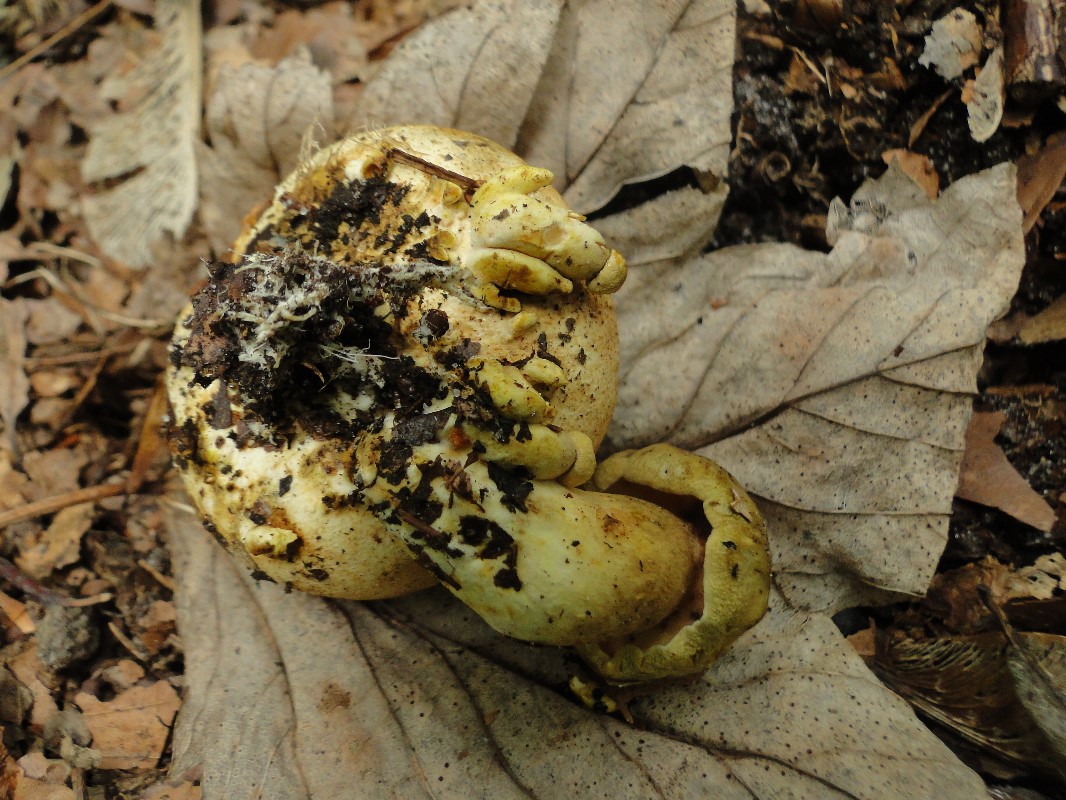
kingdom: Fungi
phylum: Basidiomycota
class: Agaricomycetes
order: Boletales
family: Boletaceae
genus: Pseudoboletus
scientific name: Pseudoboletus parasiticus
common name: snyltende rørhat
